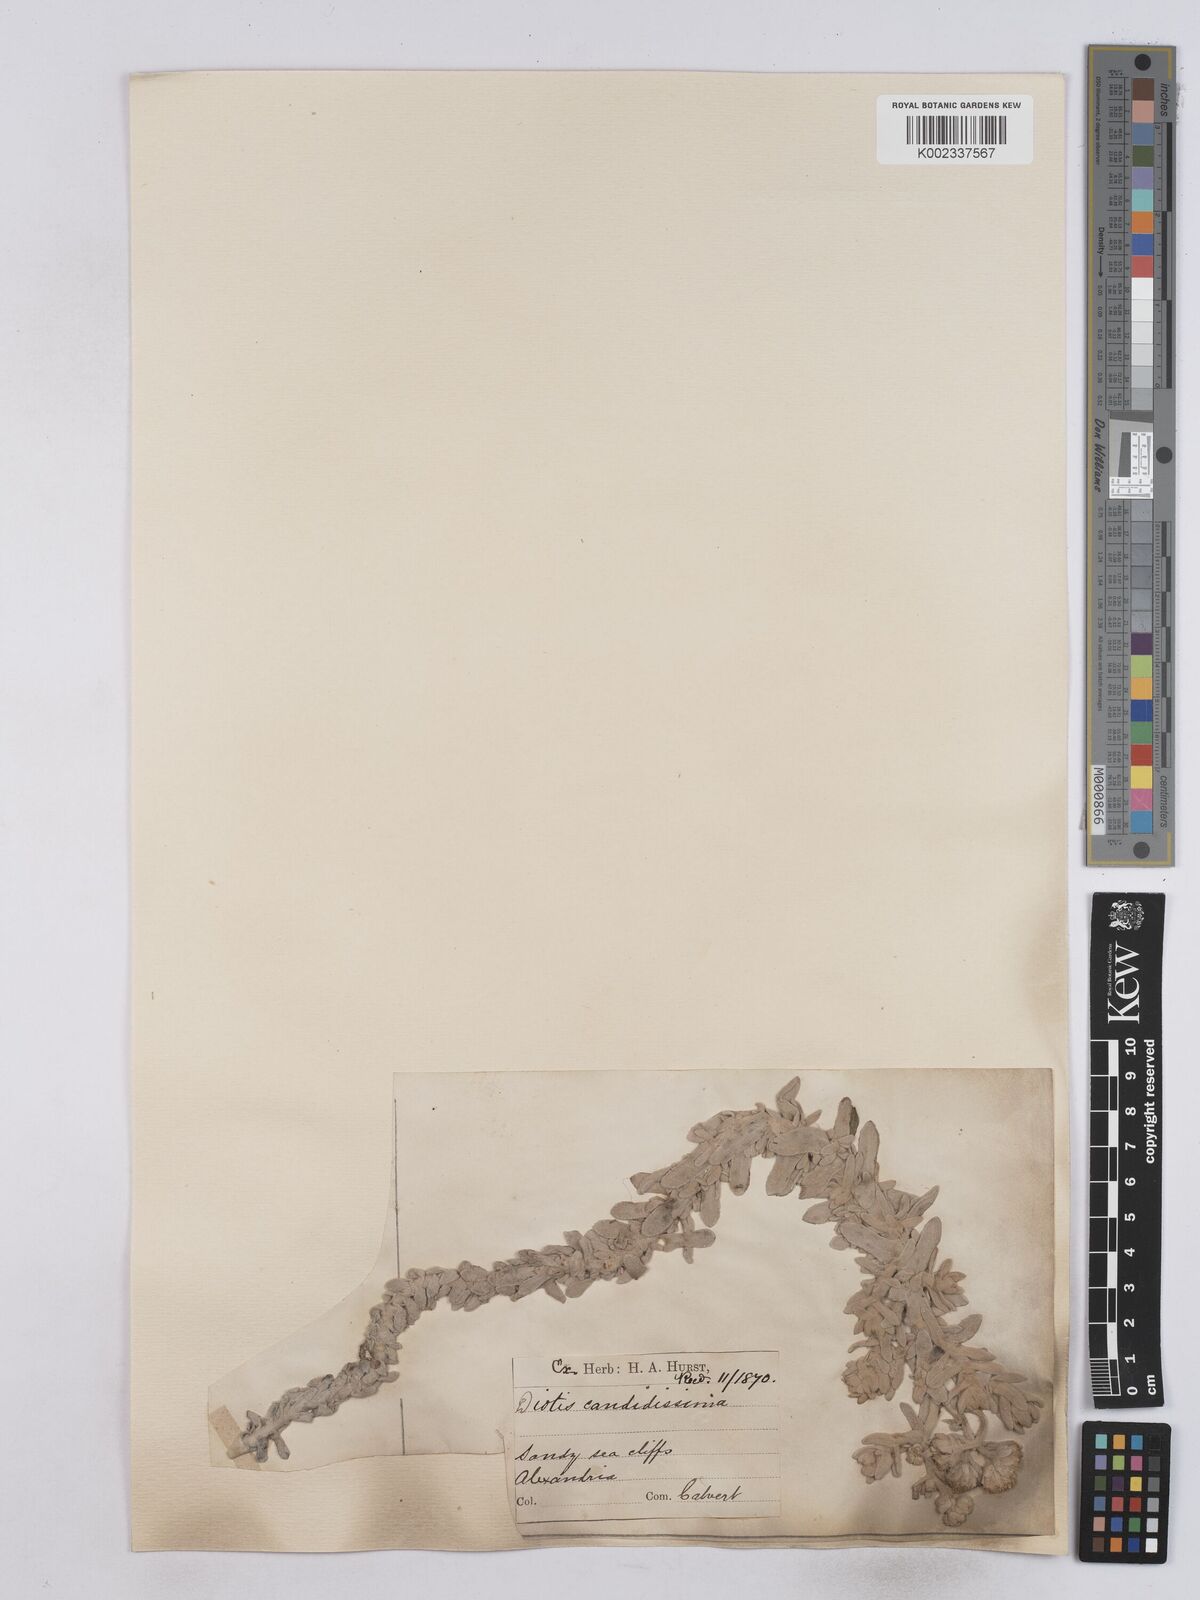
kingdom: Plantae
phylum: Tracheophyta
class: Magnoliopsida
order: Asterales
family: Asteraceae
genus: Achillea
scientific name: Achillea maritima
